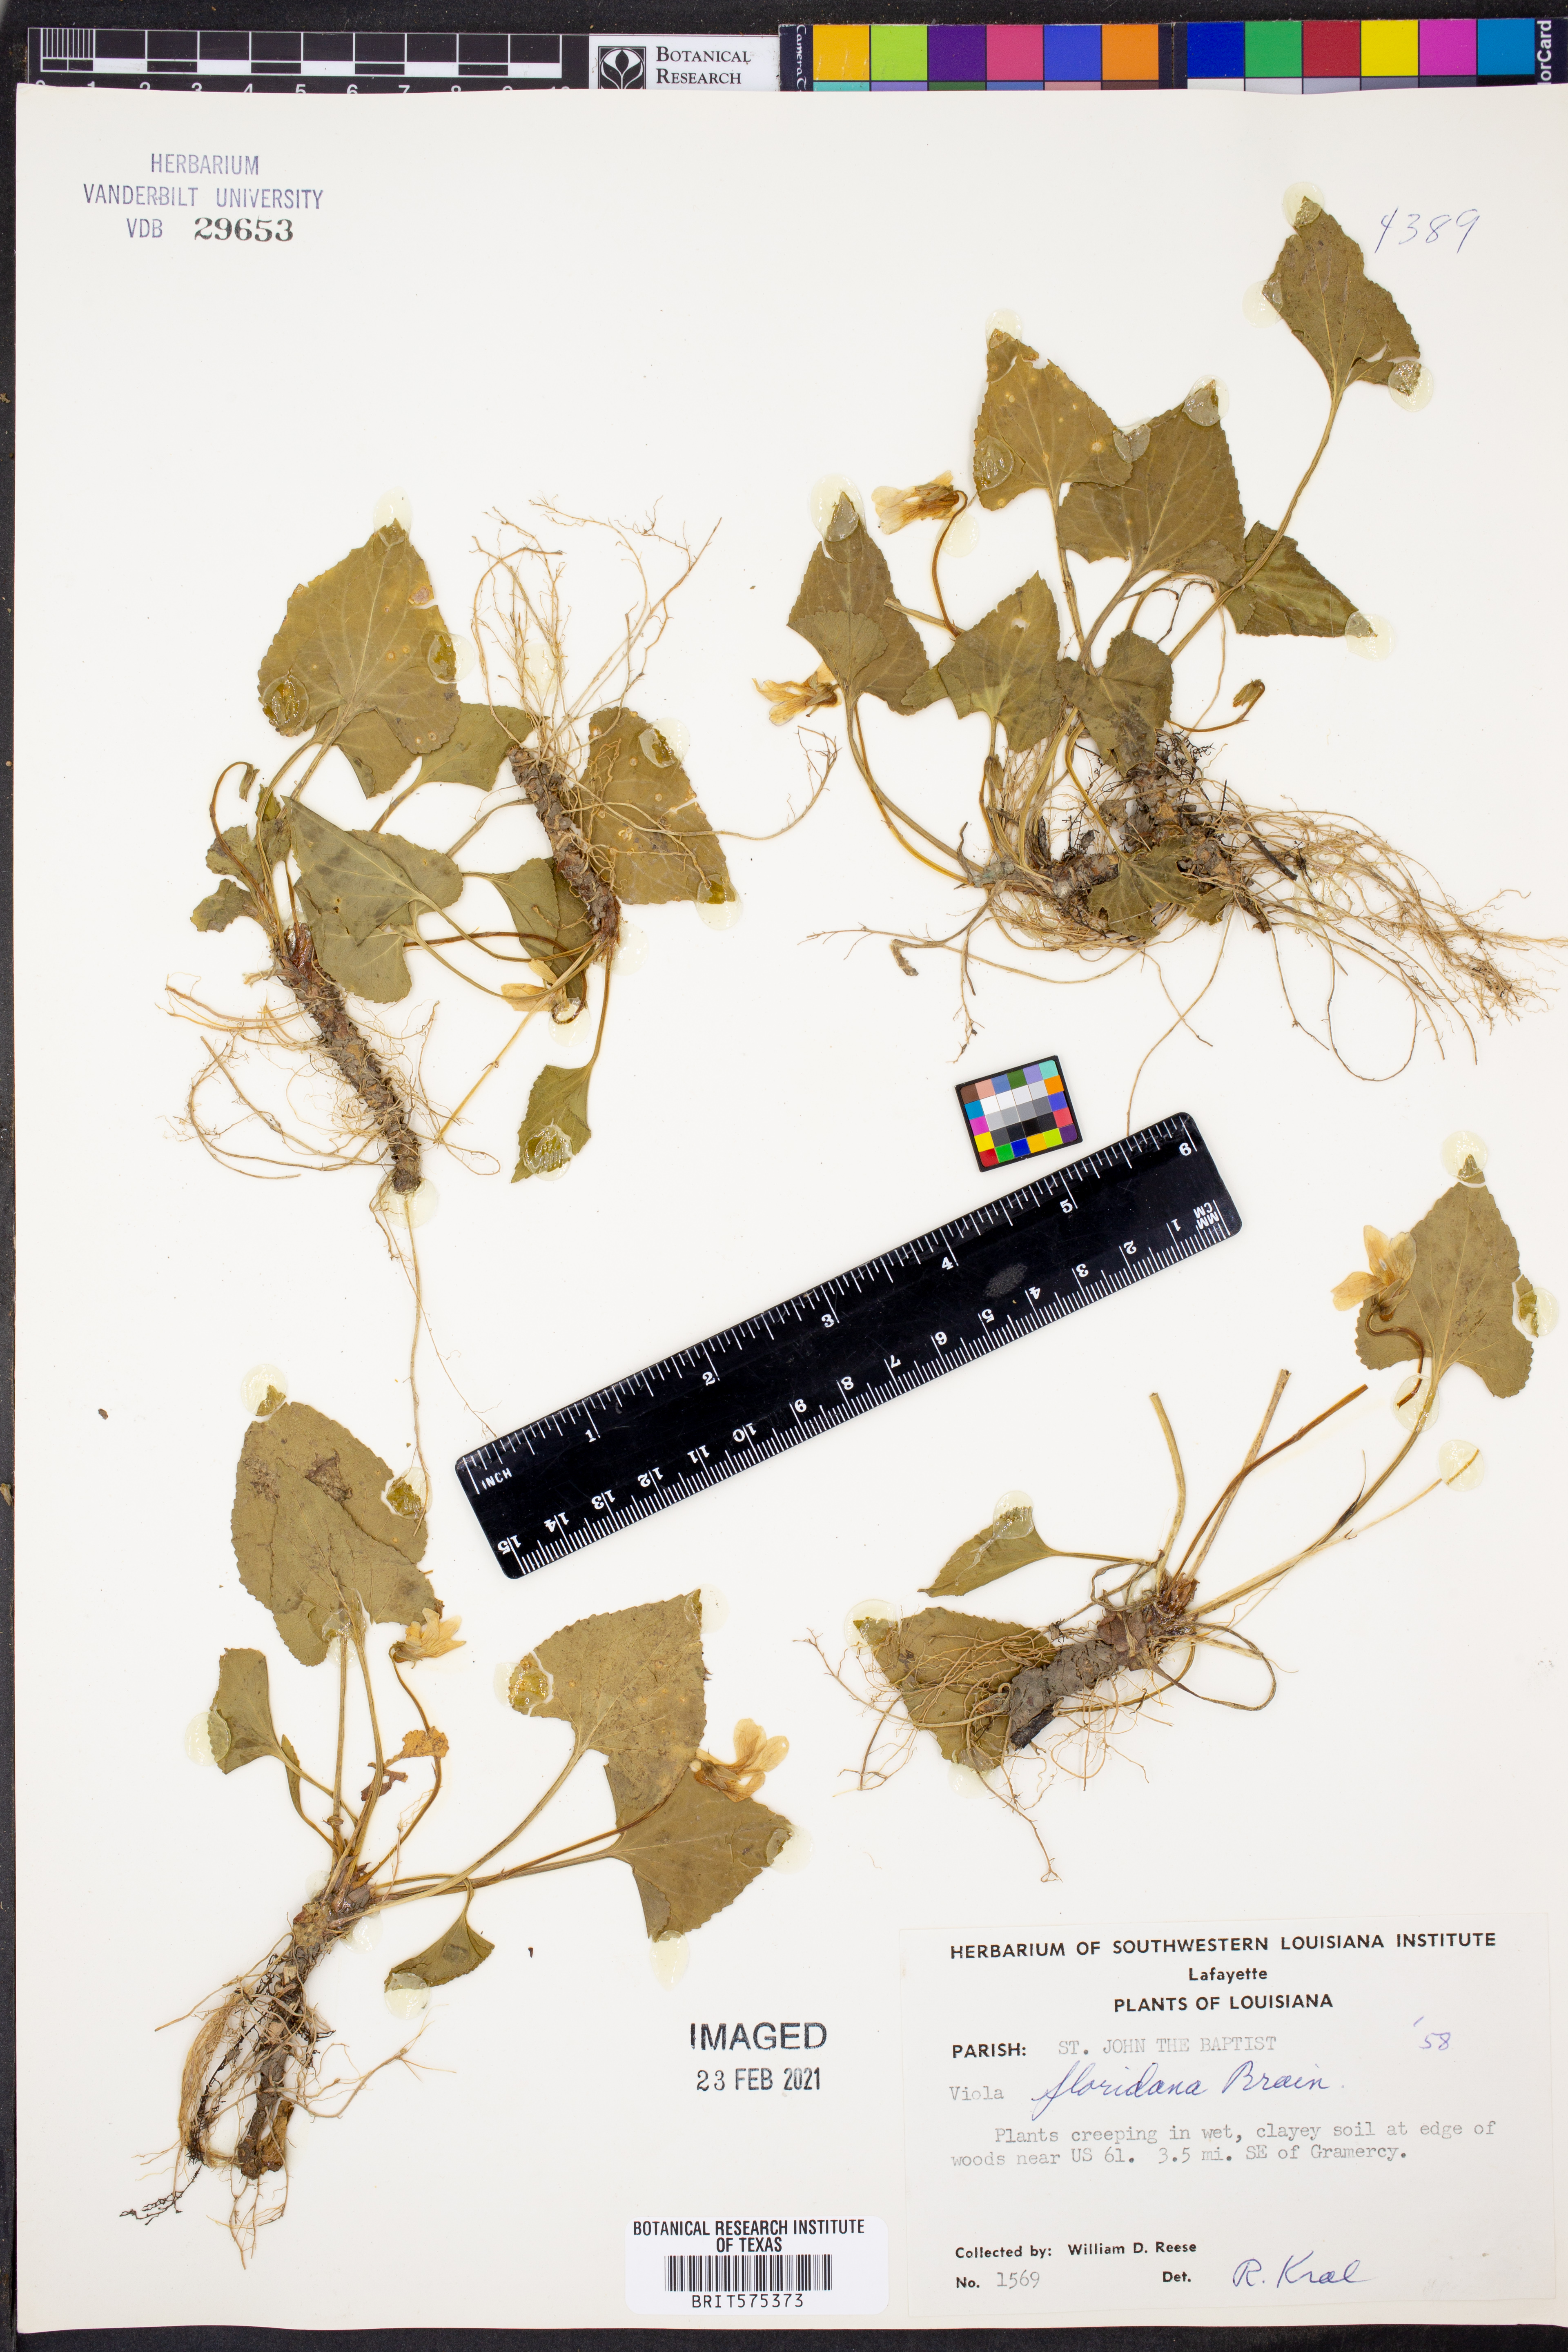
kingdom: Plantae
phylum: Tracheophyta
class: Magnoliopsida
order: Malpighiales
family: Violaceae
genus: Viola
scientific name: Viola floridana
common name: Florida violet
